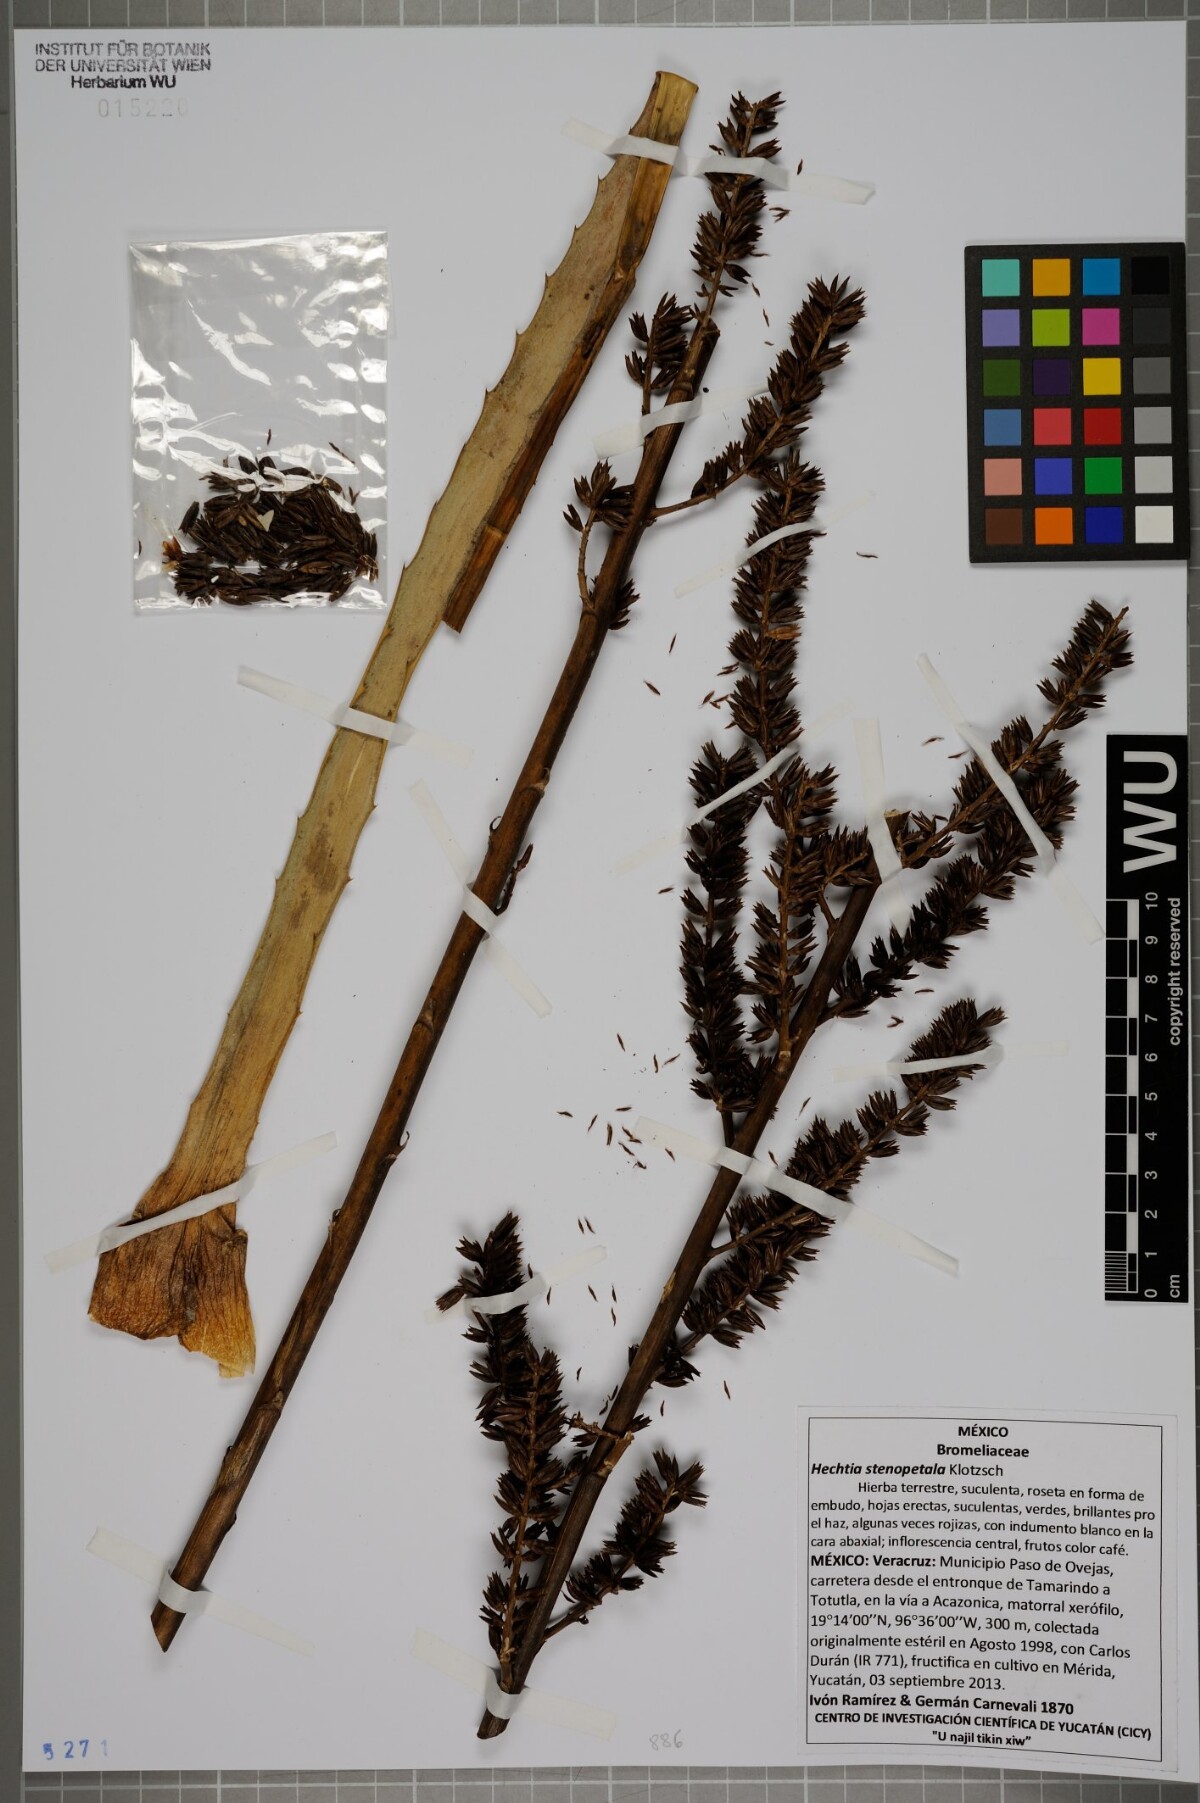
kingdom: Plantae
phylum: Tracheophyta
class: Liliopsida
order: Poales
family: Bromeliaceae
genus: Hechtia
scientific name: Hechtia stenopetala
